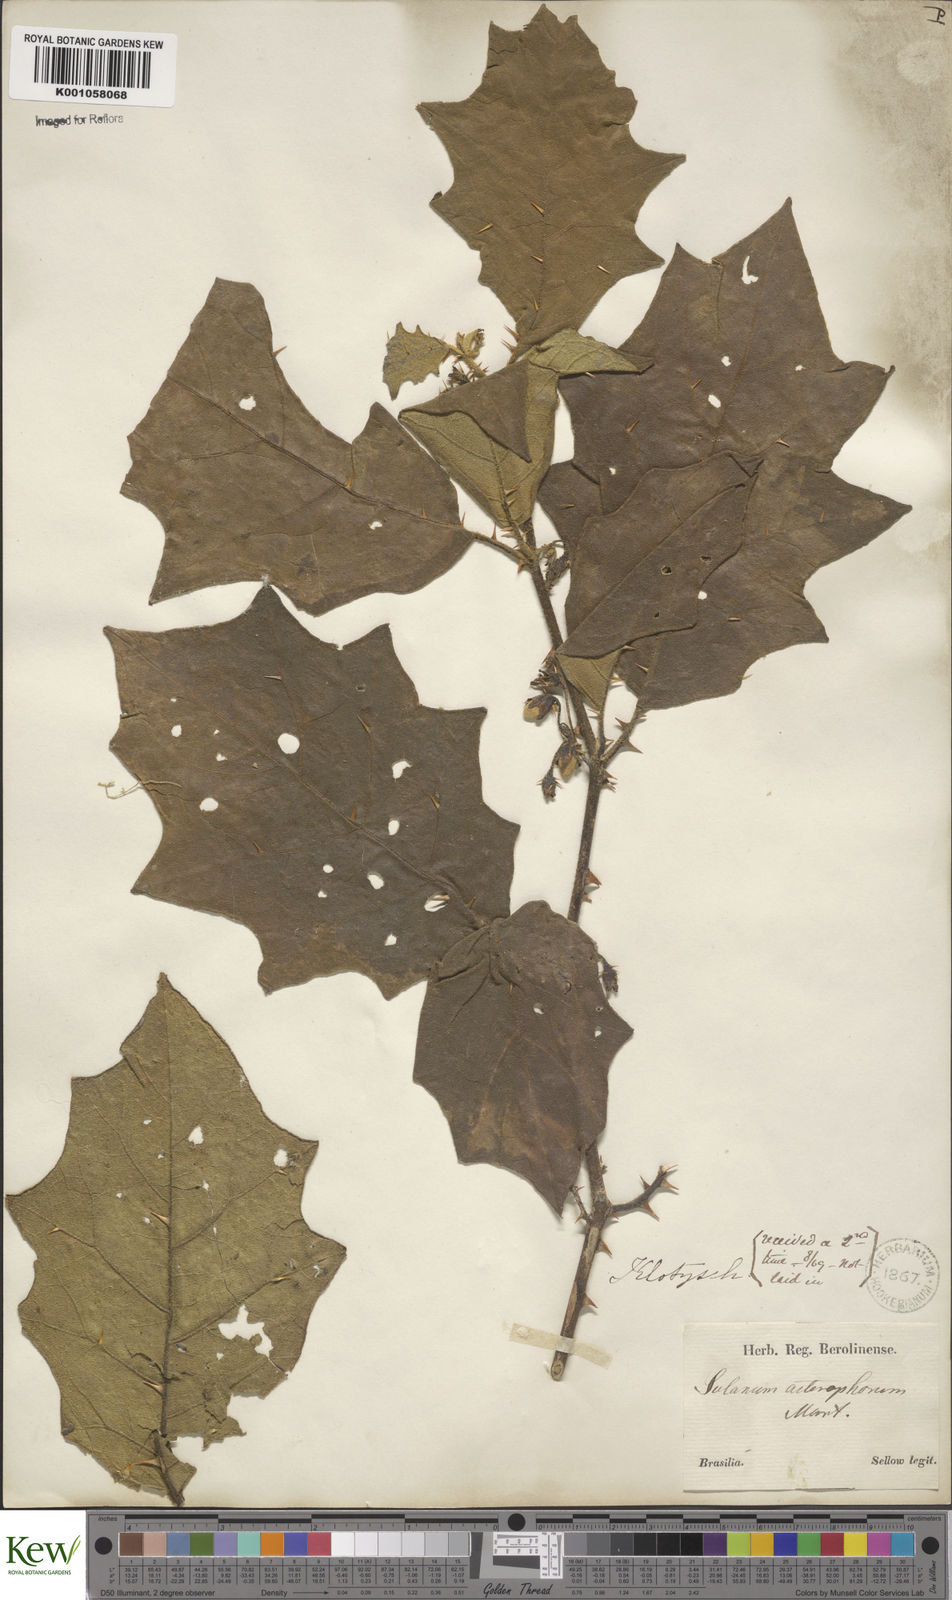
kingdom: Plantae
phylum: Tracheophyta
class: Magnoliopsida
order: Solanales
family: Solanaceae
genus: Solanum
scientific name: Solanum asterophorum
